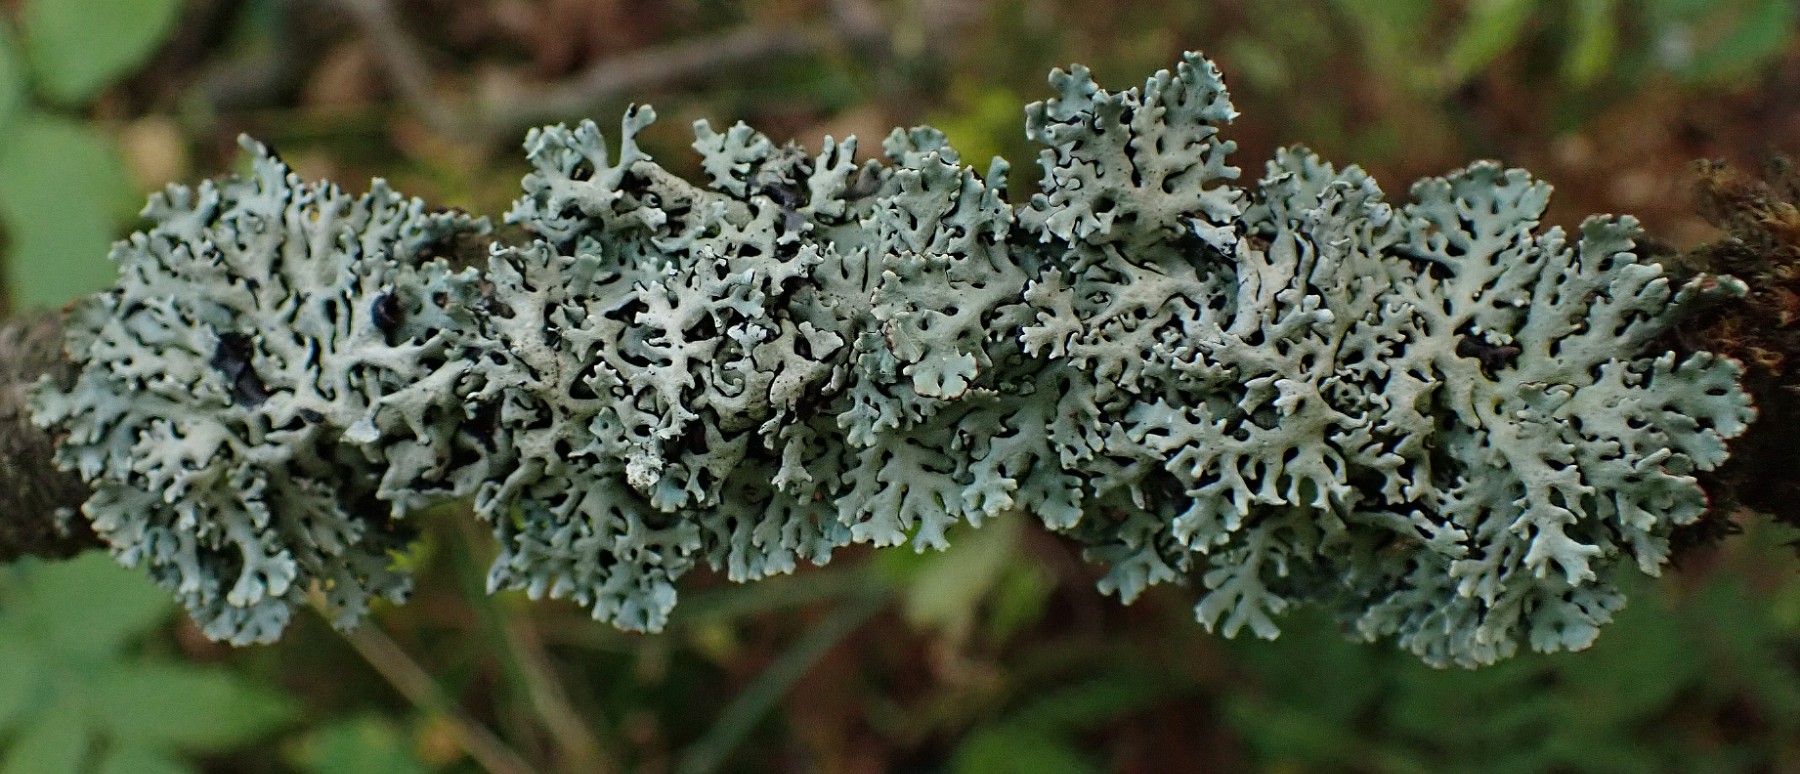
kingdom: Fungi
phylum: Ascomycota
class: Lecanoromycetes
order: Lecanorales
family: Parmeliaceae
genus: Hypogymnia
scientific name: Hypogymnia physodes
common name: almindelig kvistlav
